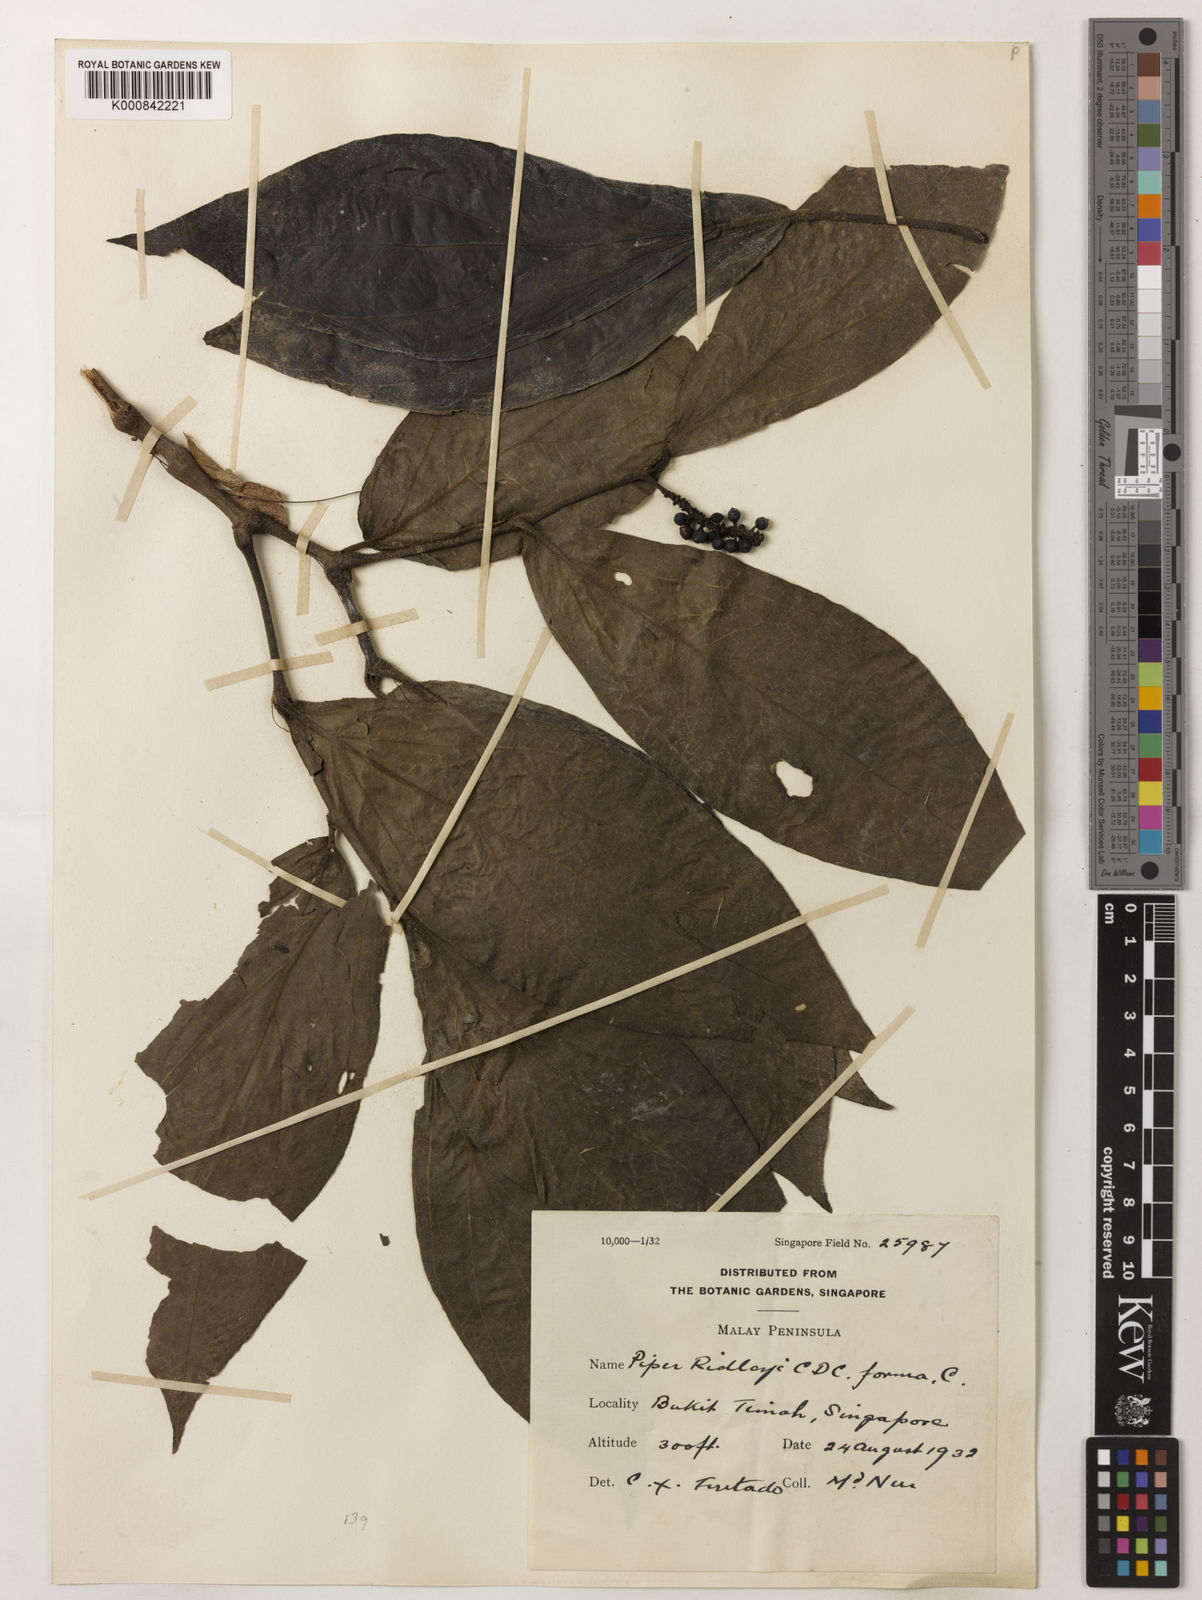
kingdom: Plantae
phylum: Tracheophyta
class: Magnoliopsida
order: Piperales
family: Piperaceae
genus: Piper
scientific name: Piper ridleyi
